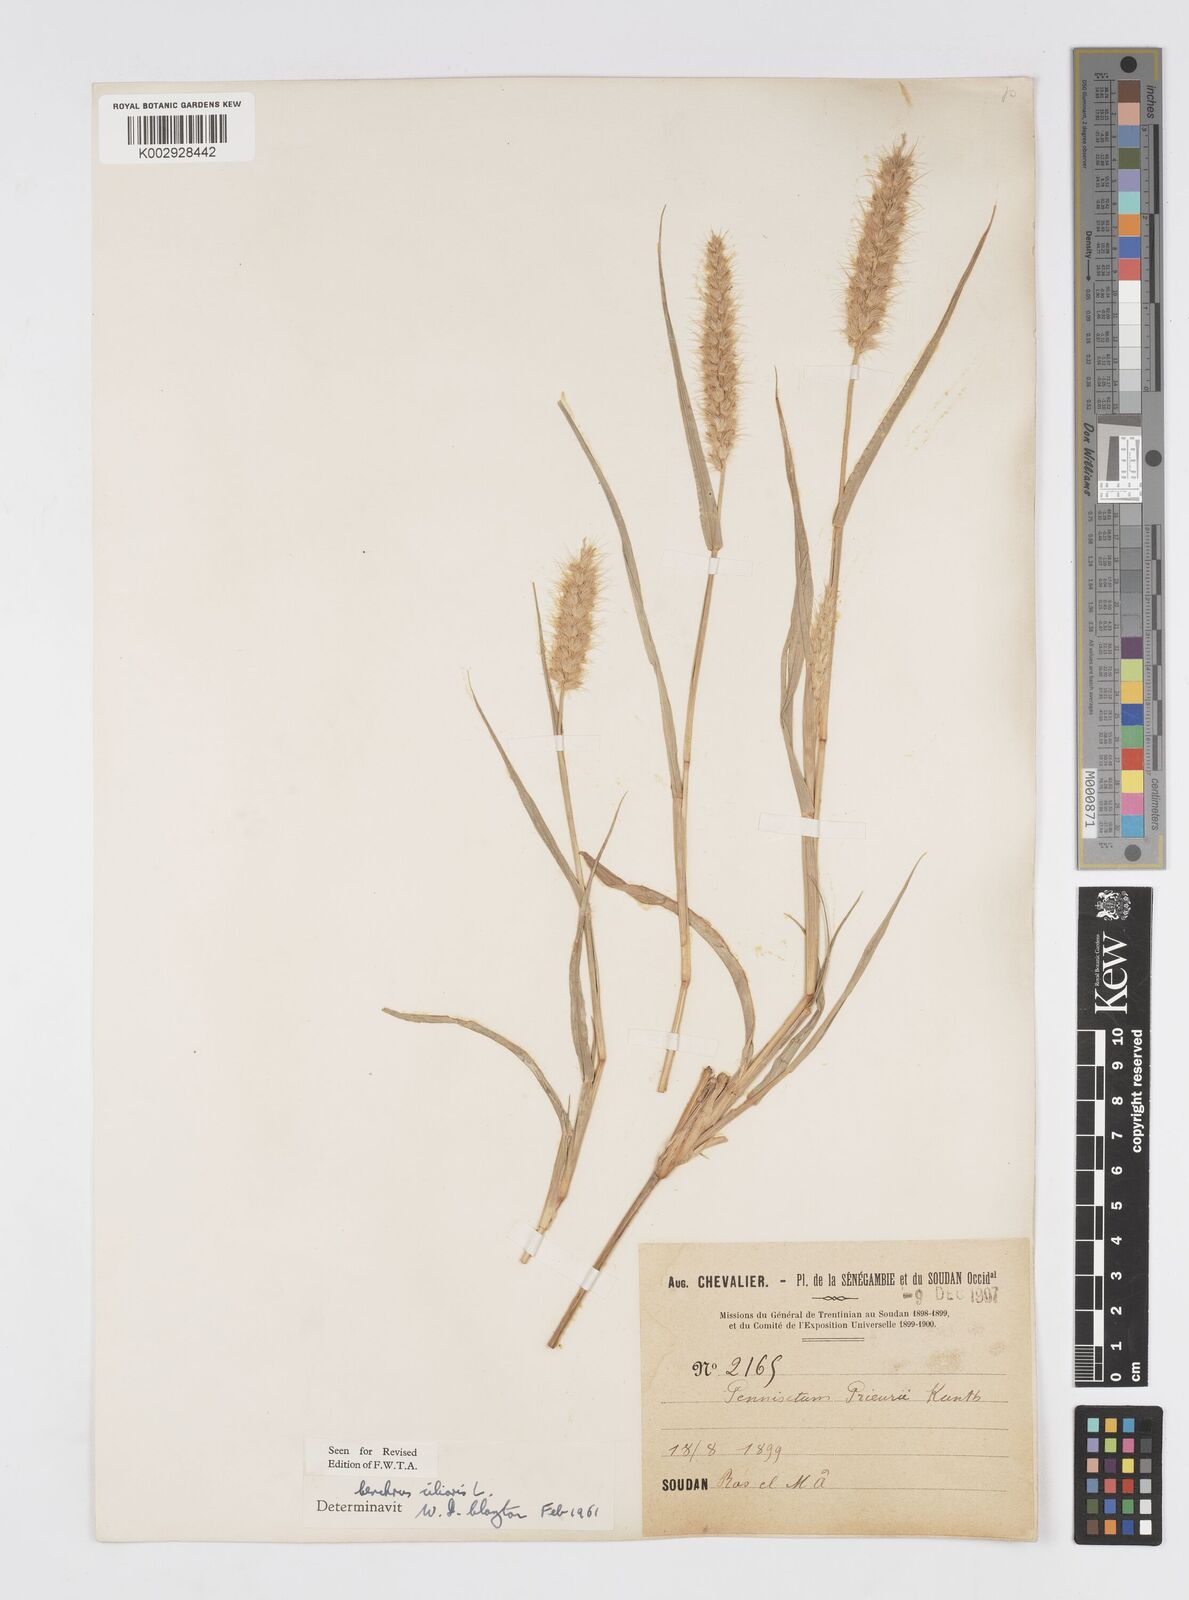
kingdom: Plantae
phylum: Tracheophyta
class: Liliopsida
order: Poales
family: Poaceae
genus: Cenchrus
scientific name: Cenchrus ciliaris
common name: Buffelgrass
